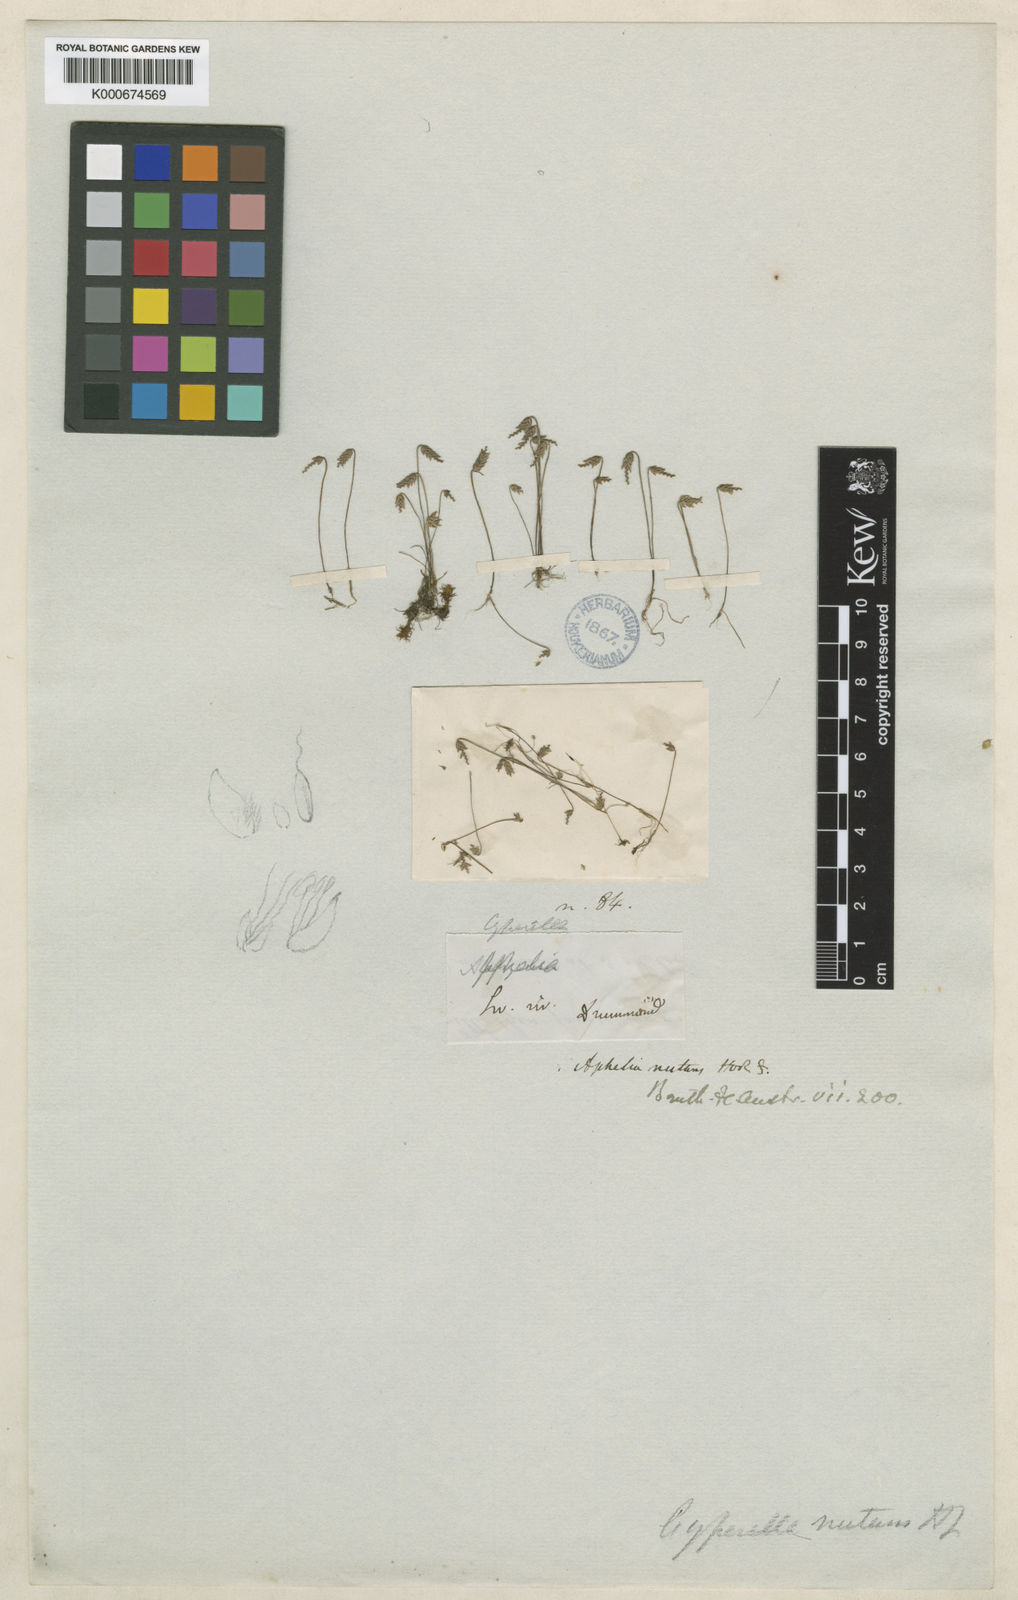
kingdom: Plantae
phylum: Tracheophyta
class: Liliopsida
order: Poales
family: Restionaceae
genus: Aphelia
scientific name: Aphelia nutans
